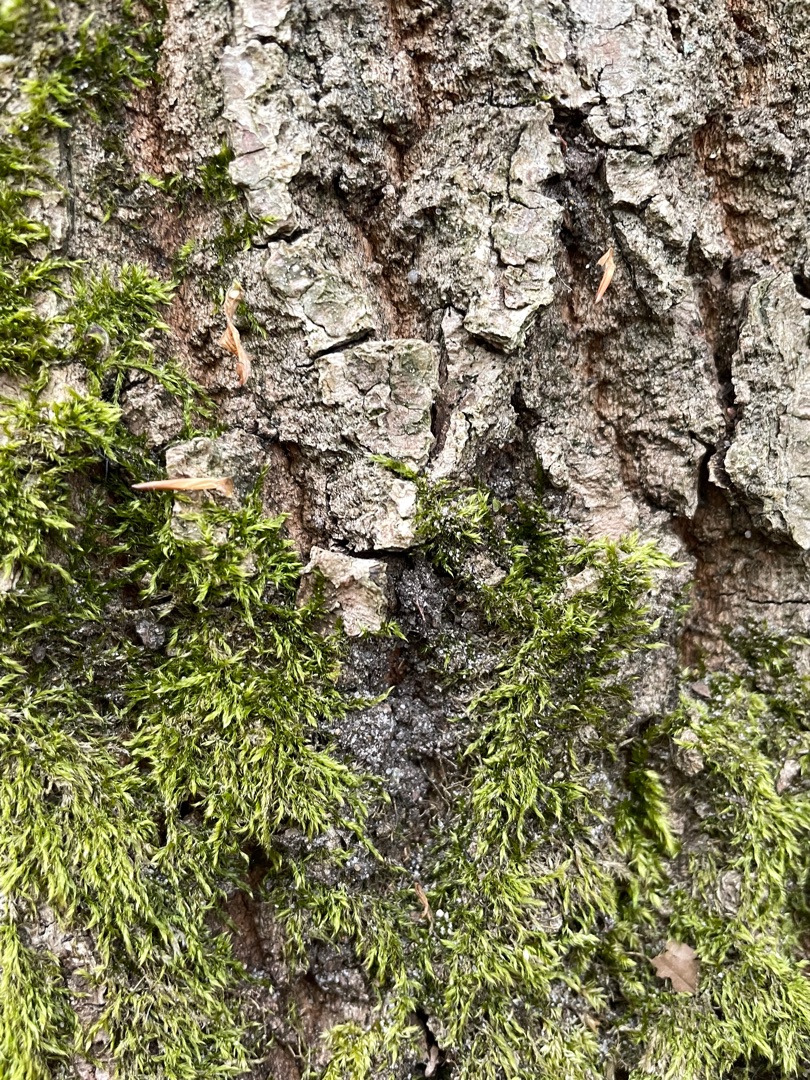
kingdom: Plantae
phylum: Bryophyta
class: Bryopsida
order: Hypnales
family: Hypnaceae
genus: Hypnum
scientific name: Hypnum
